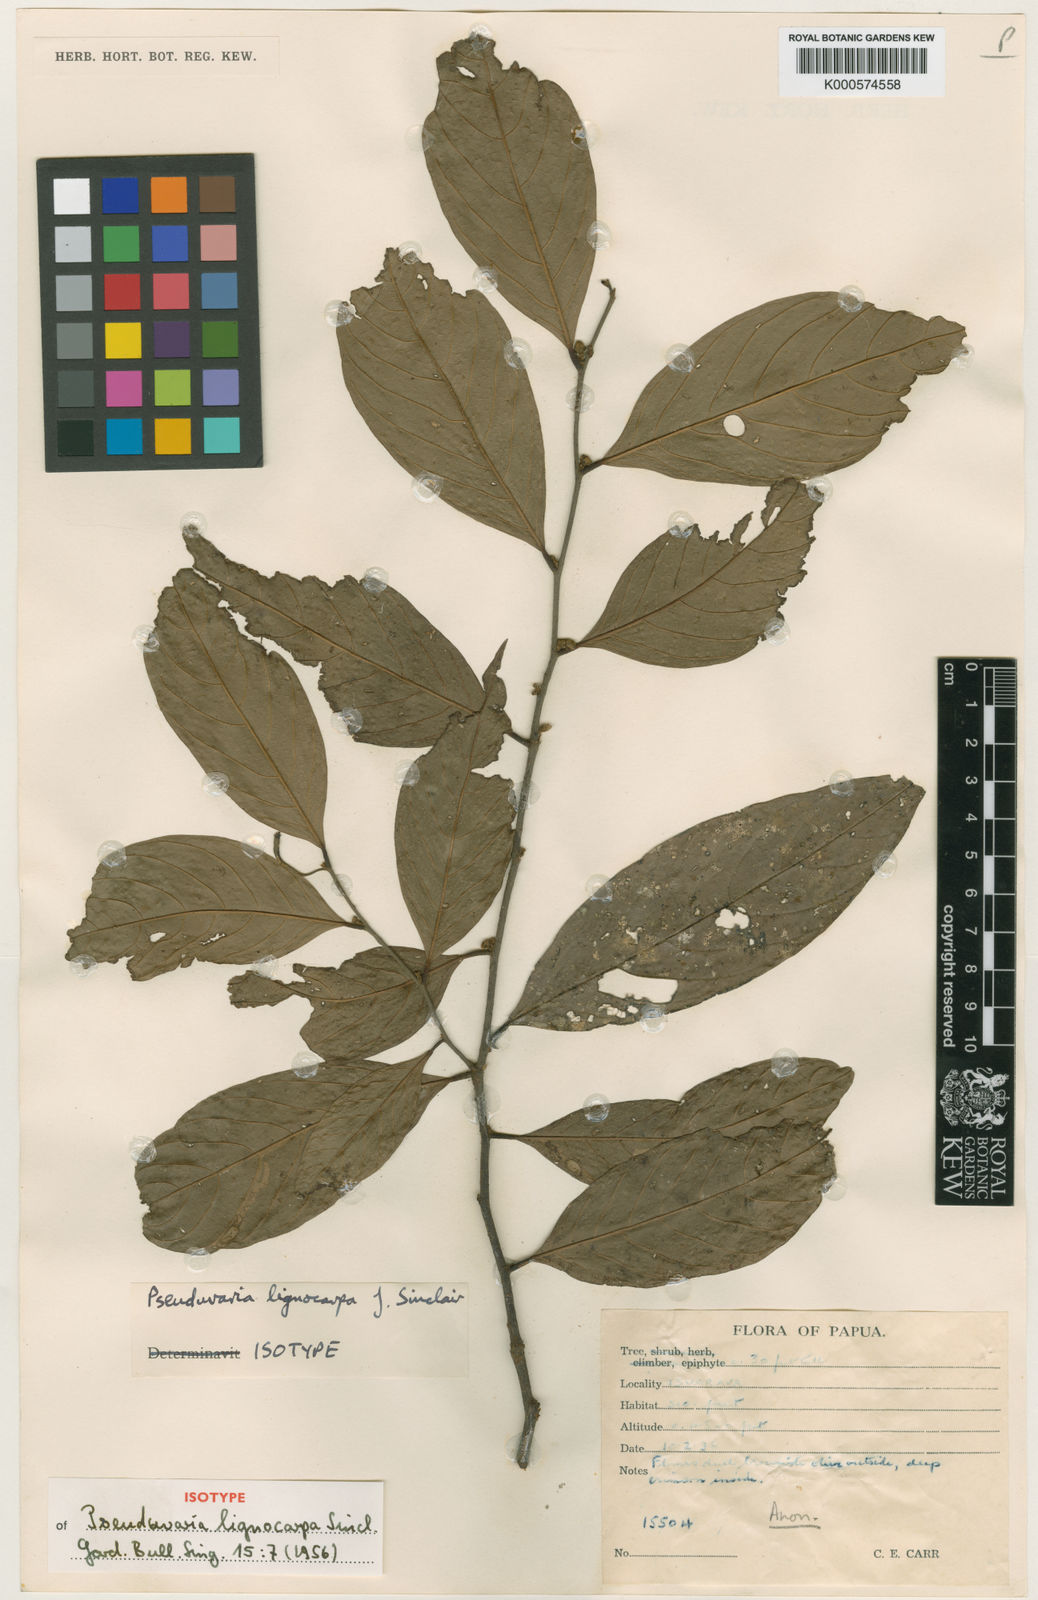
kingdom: Plantae
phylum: Tracheophyta
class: Magnoliopsida
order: Magnoliales
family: Annonaceae
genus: Pseuduvaria
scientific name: Pseuduvaria
